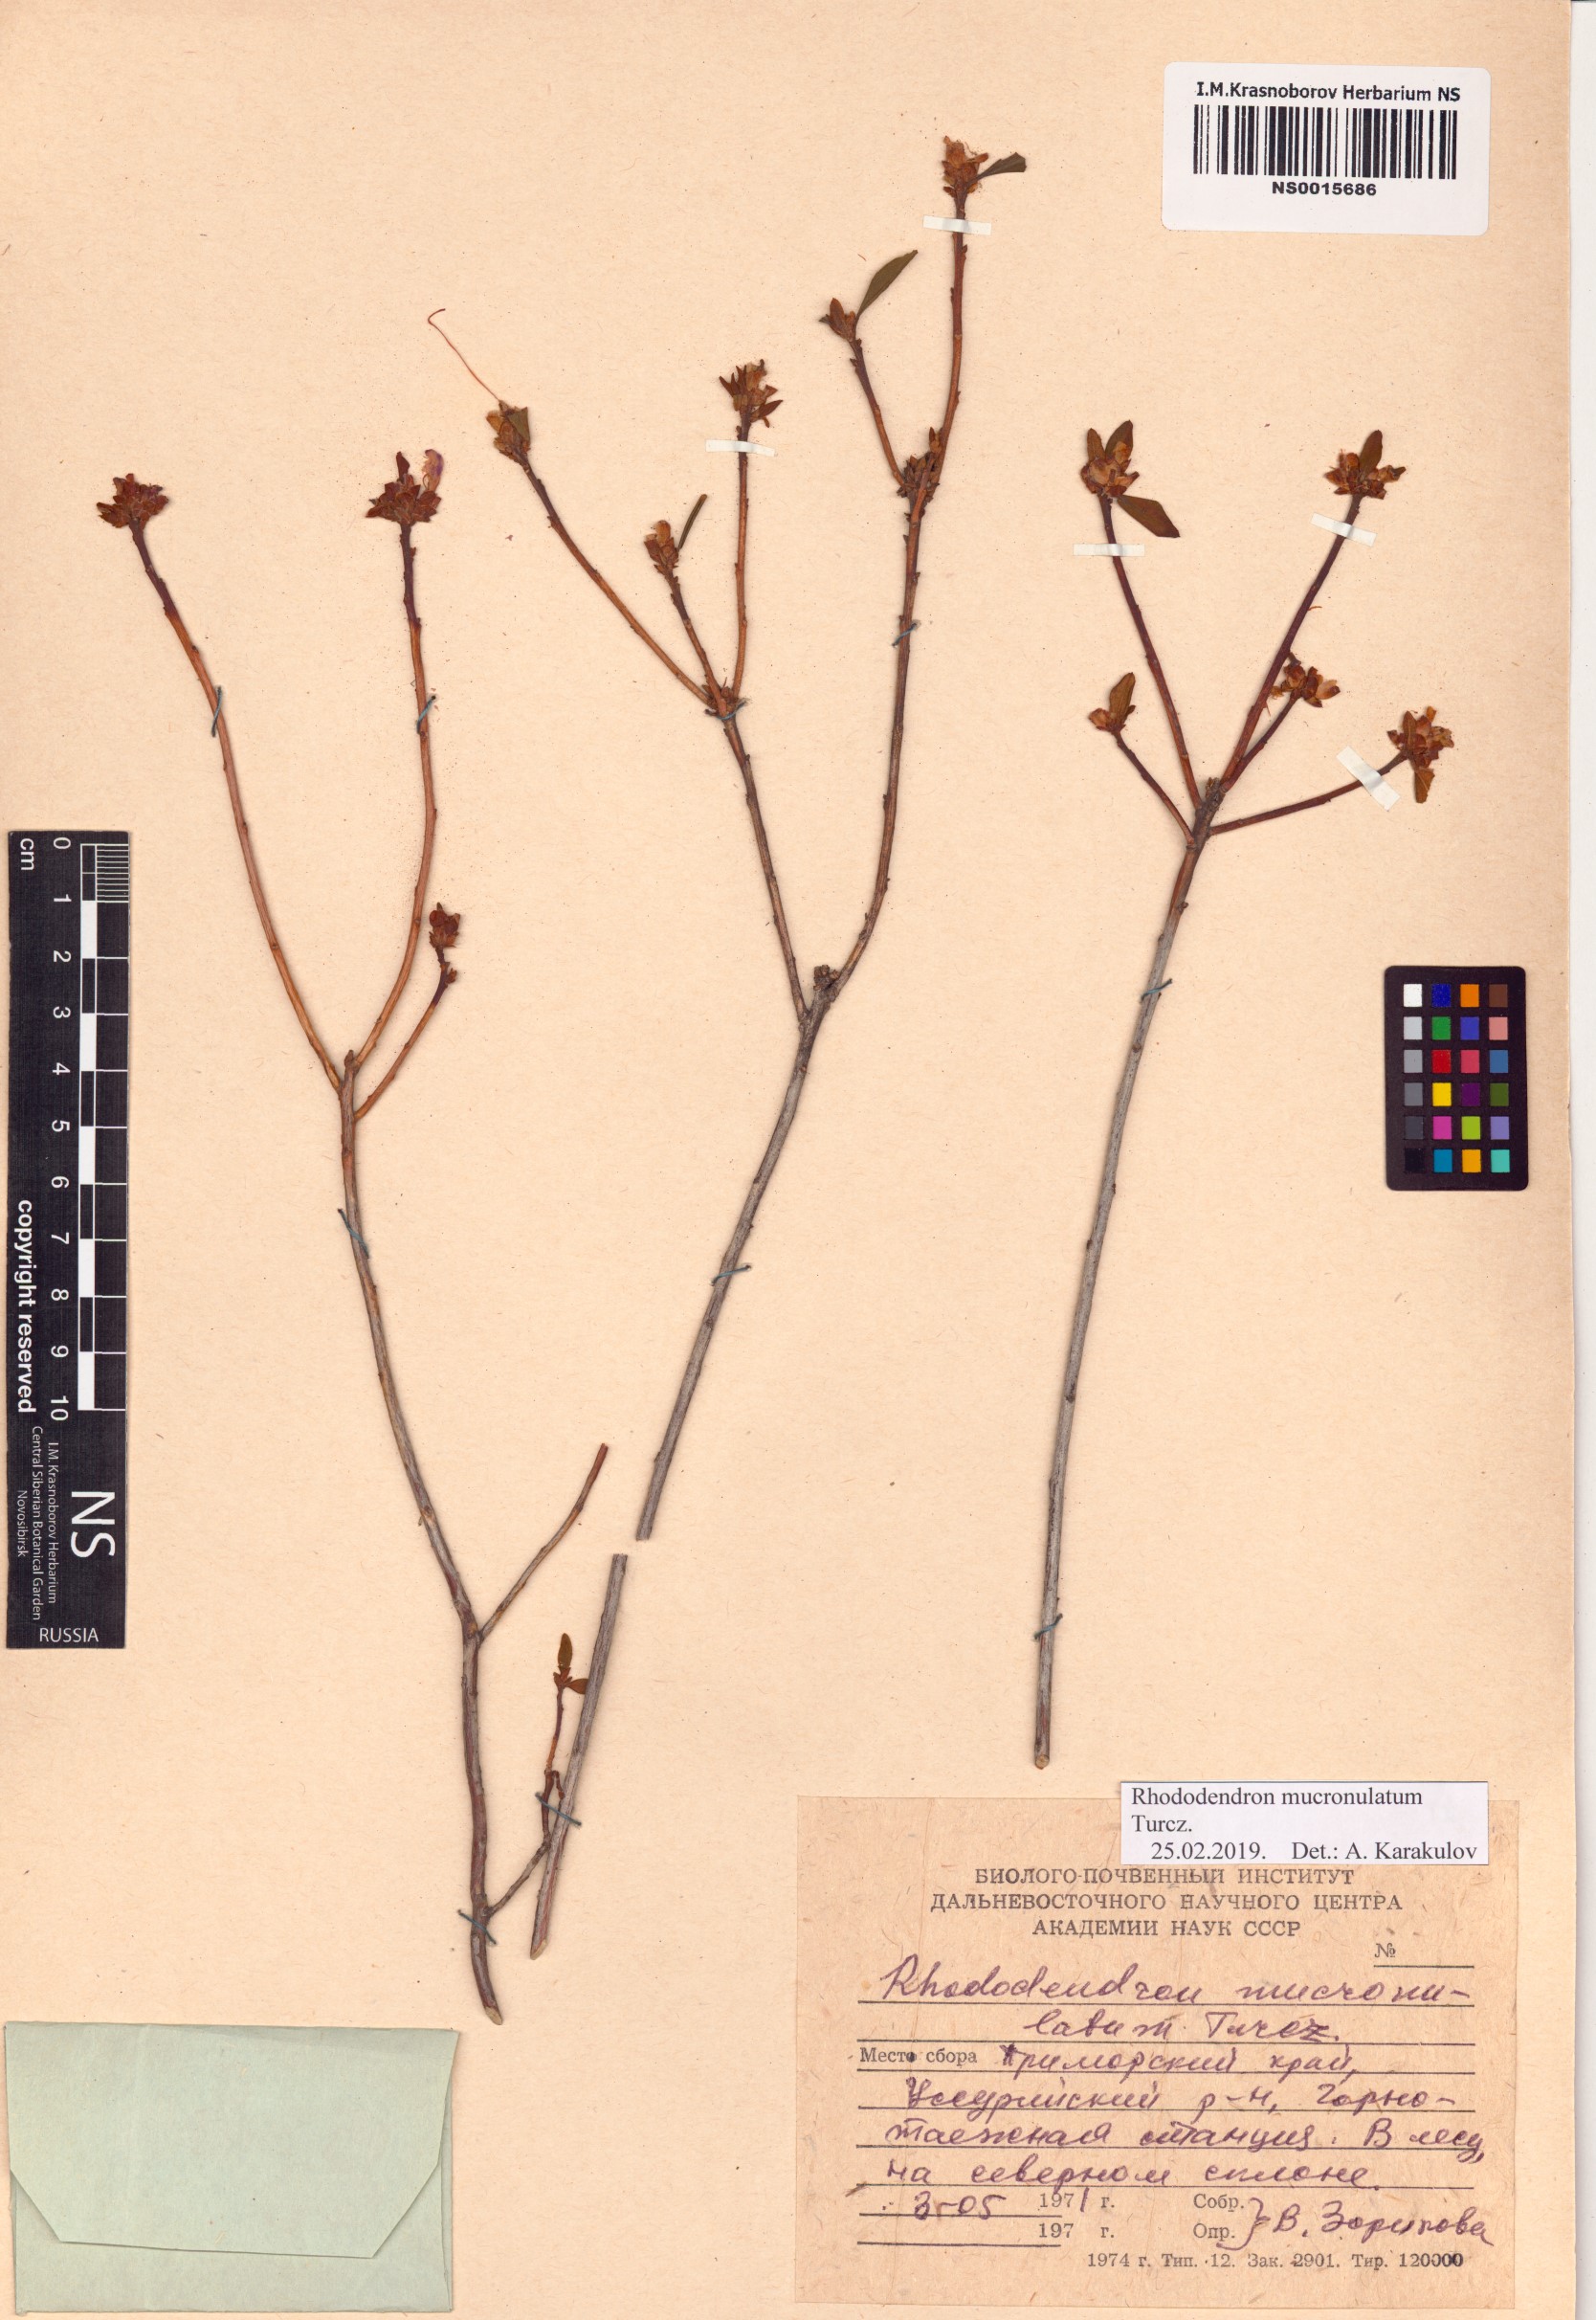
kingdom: Plantae
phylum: Tracheophyta
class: Magnoliopsida
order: Ericales
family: Ericaceae
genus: Rhododendron
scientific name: Rhododendron mucronulatum
